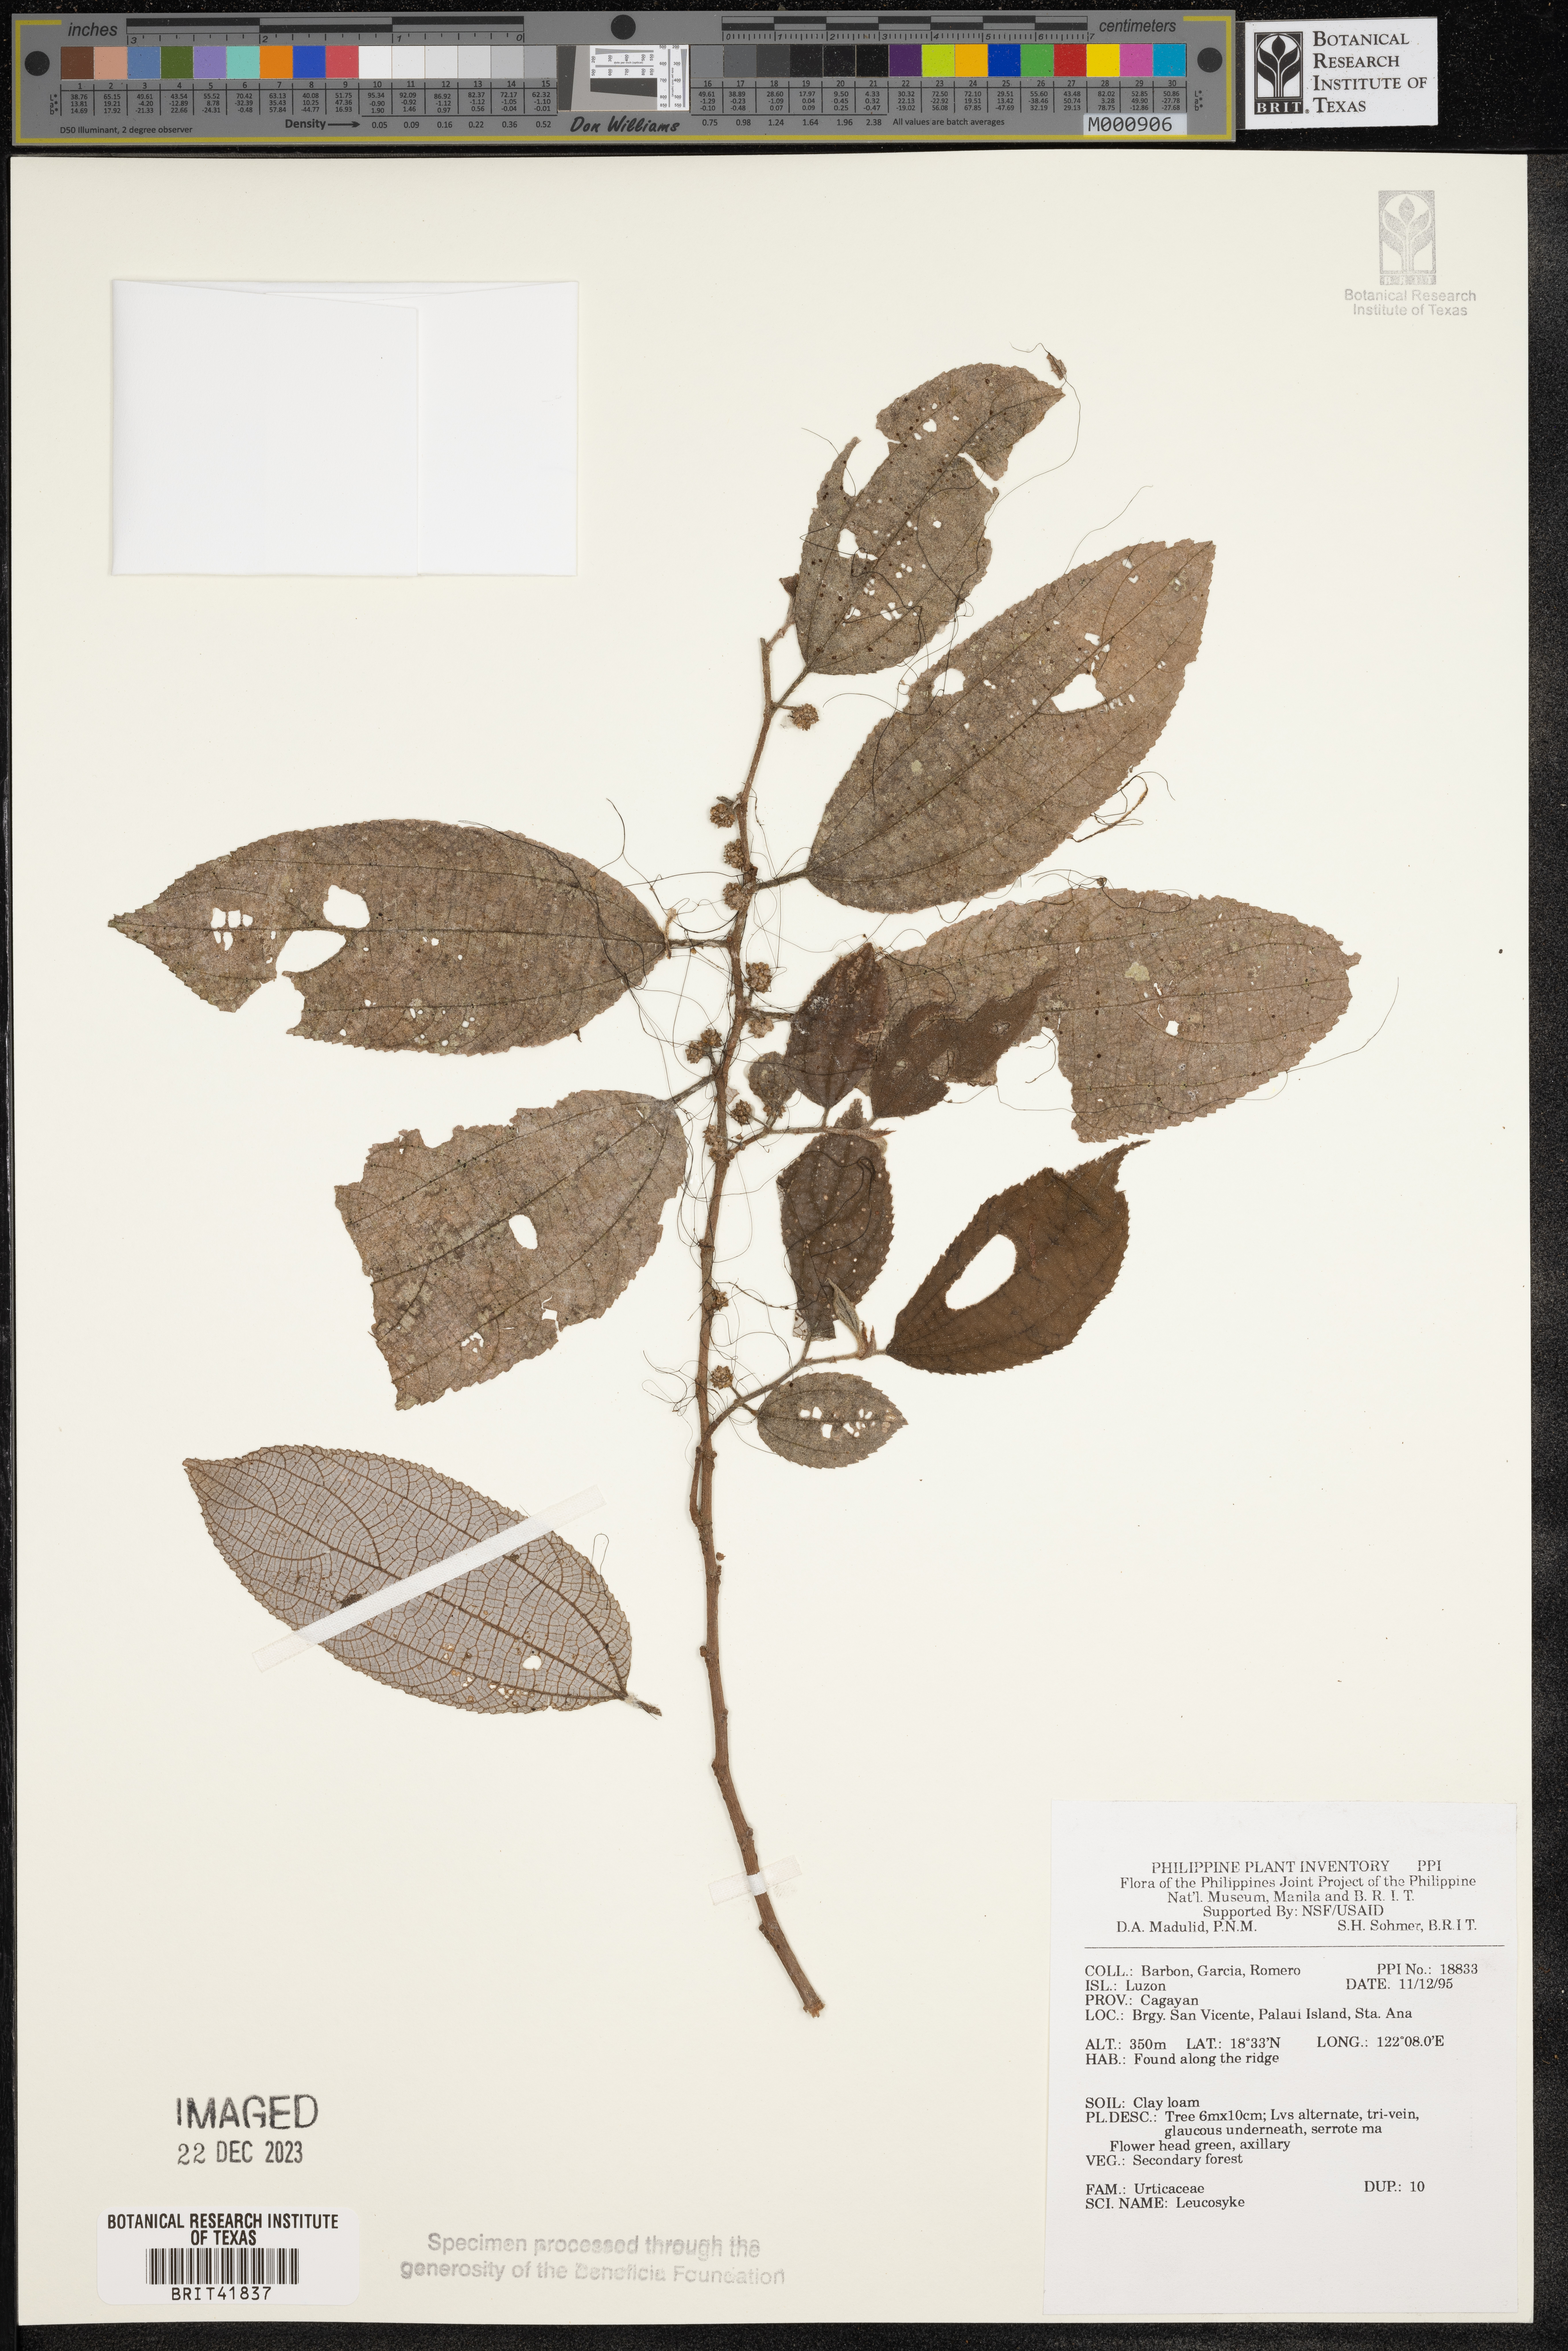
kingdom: Plantae
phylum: Tracheophyta
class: Magnoliopsida
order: Rosales
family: Urticaceae
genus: Leucosyke
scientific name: Leucosyke
